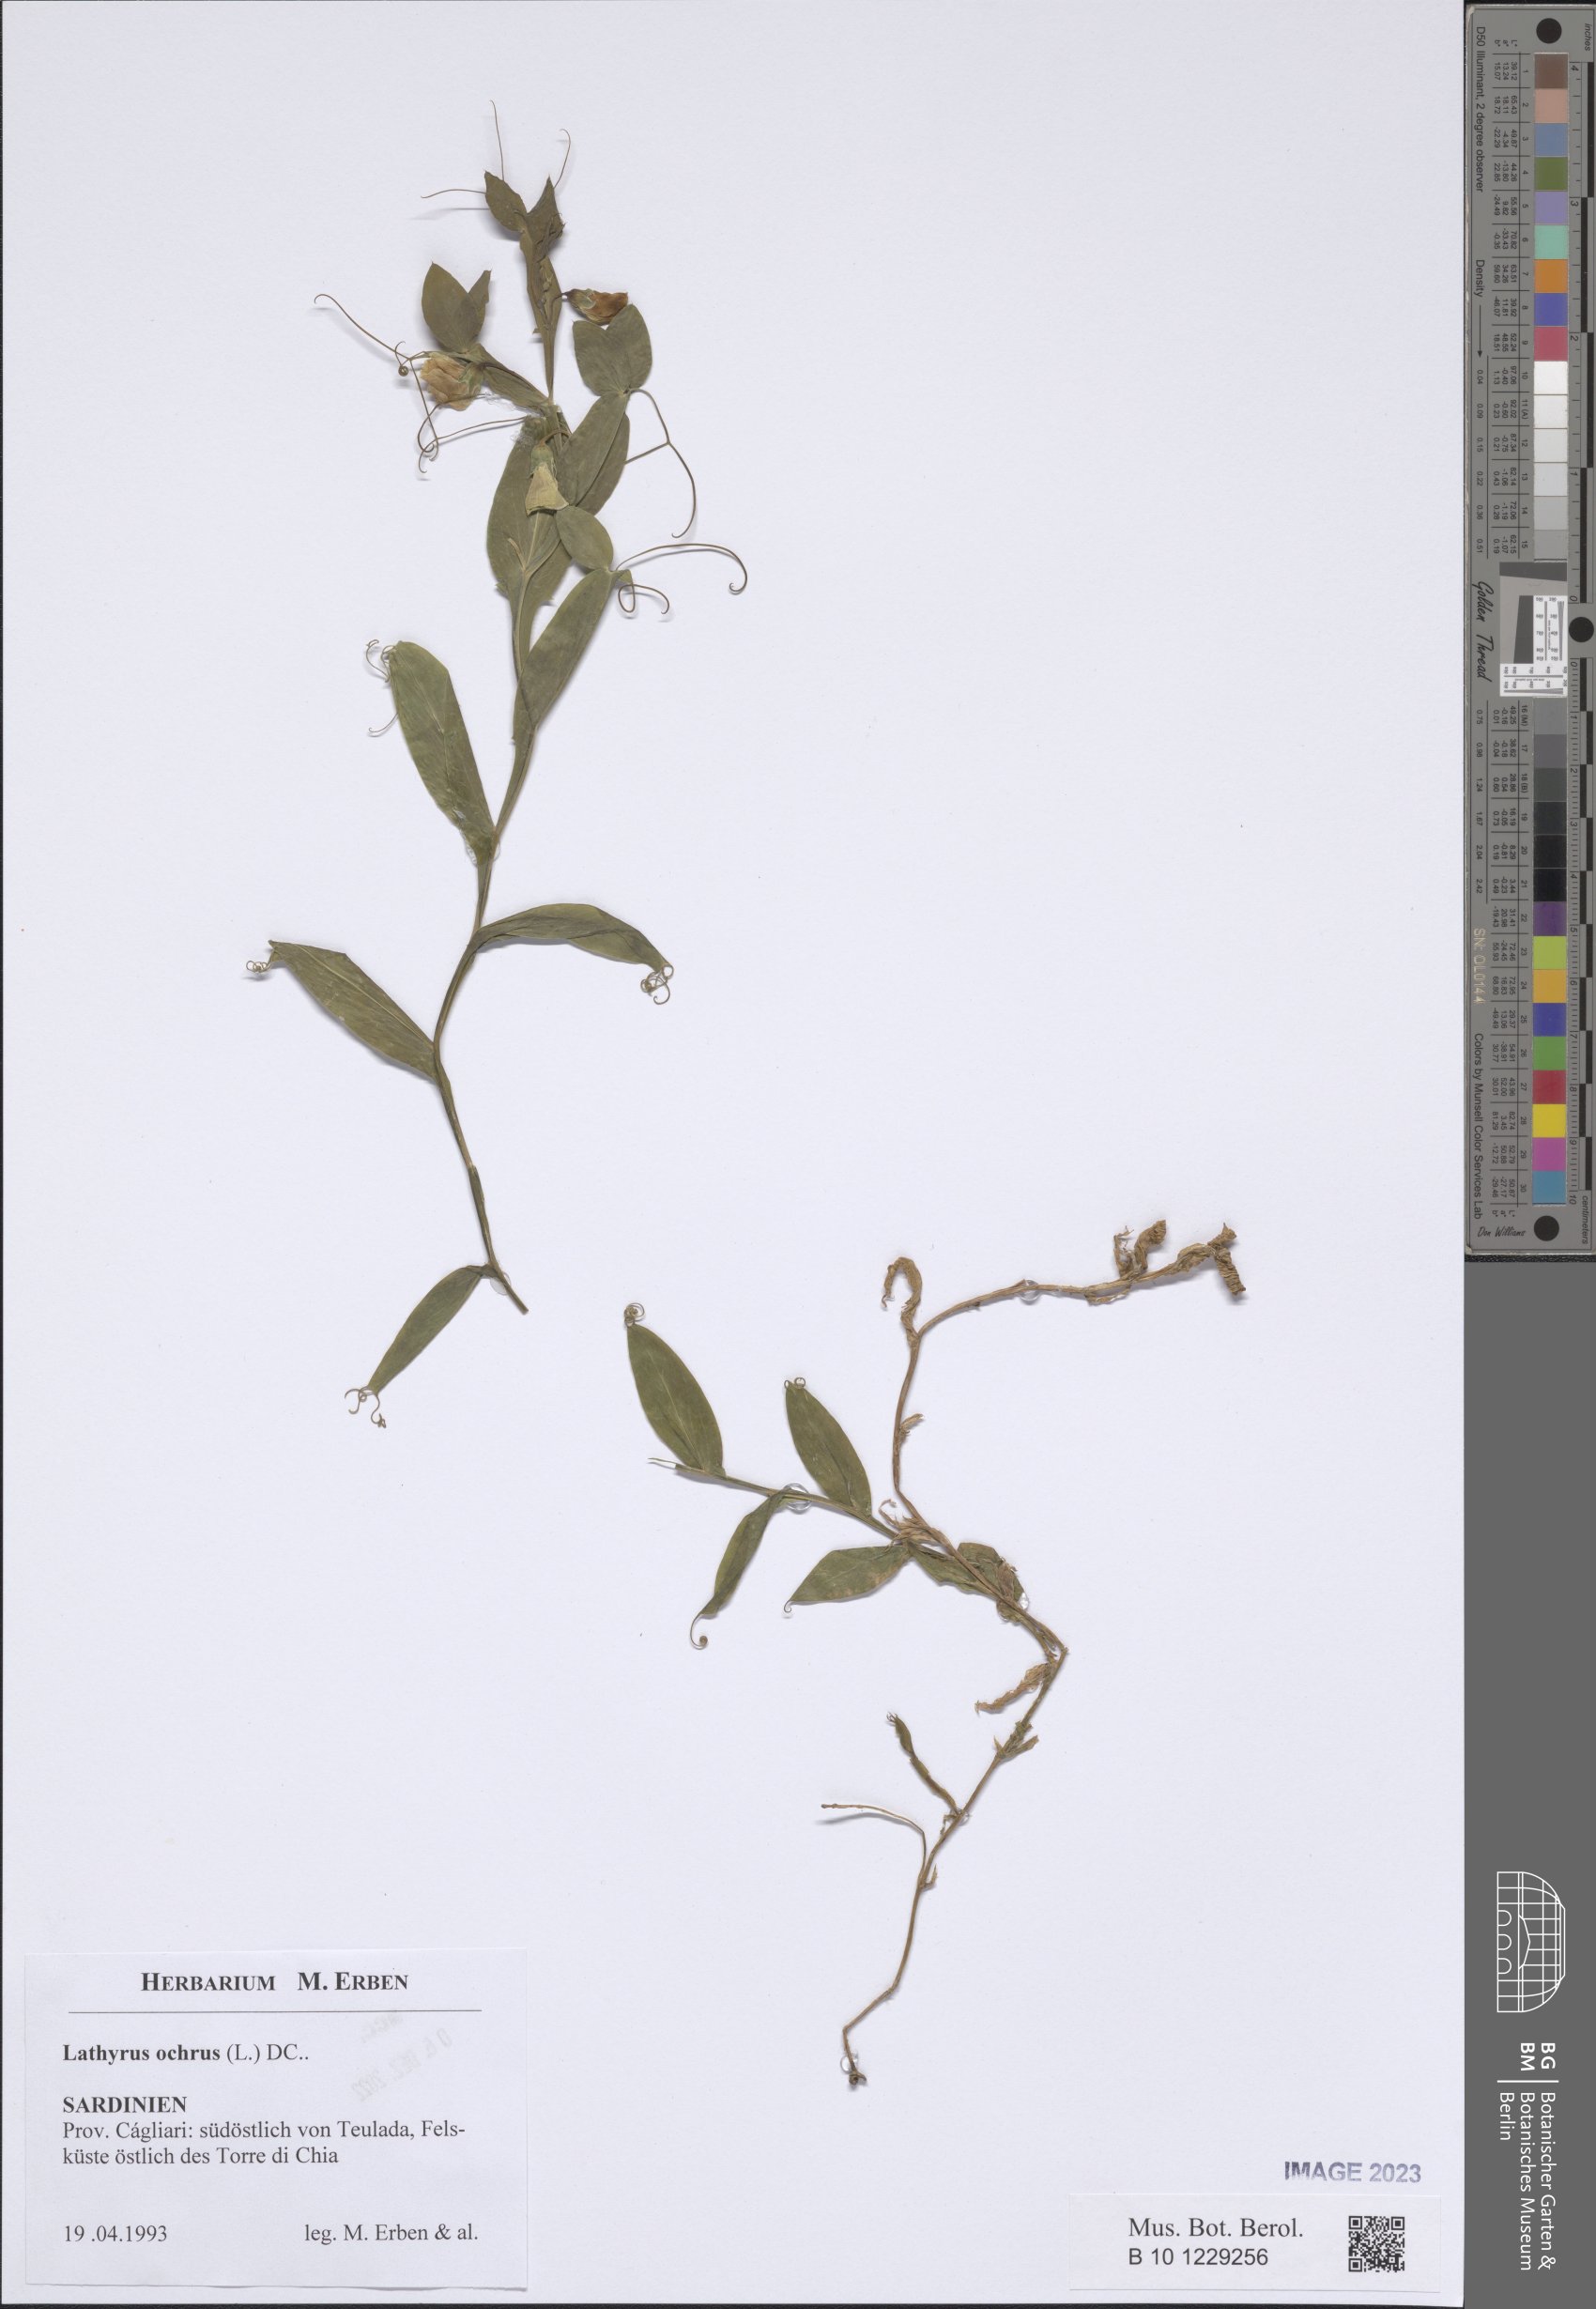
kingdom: Plantae
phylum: Tracheophyta
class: Magnoliopsida
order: Fabales
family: Fabaceae
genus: Lathyrus
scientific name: Lathyrus ochrus
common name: Winged vetchling
